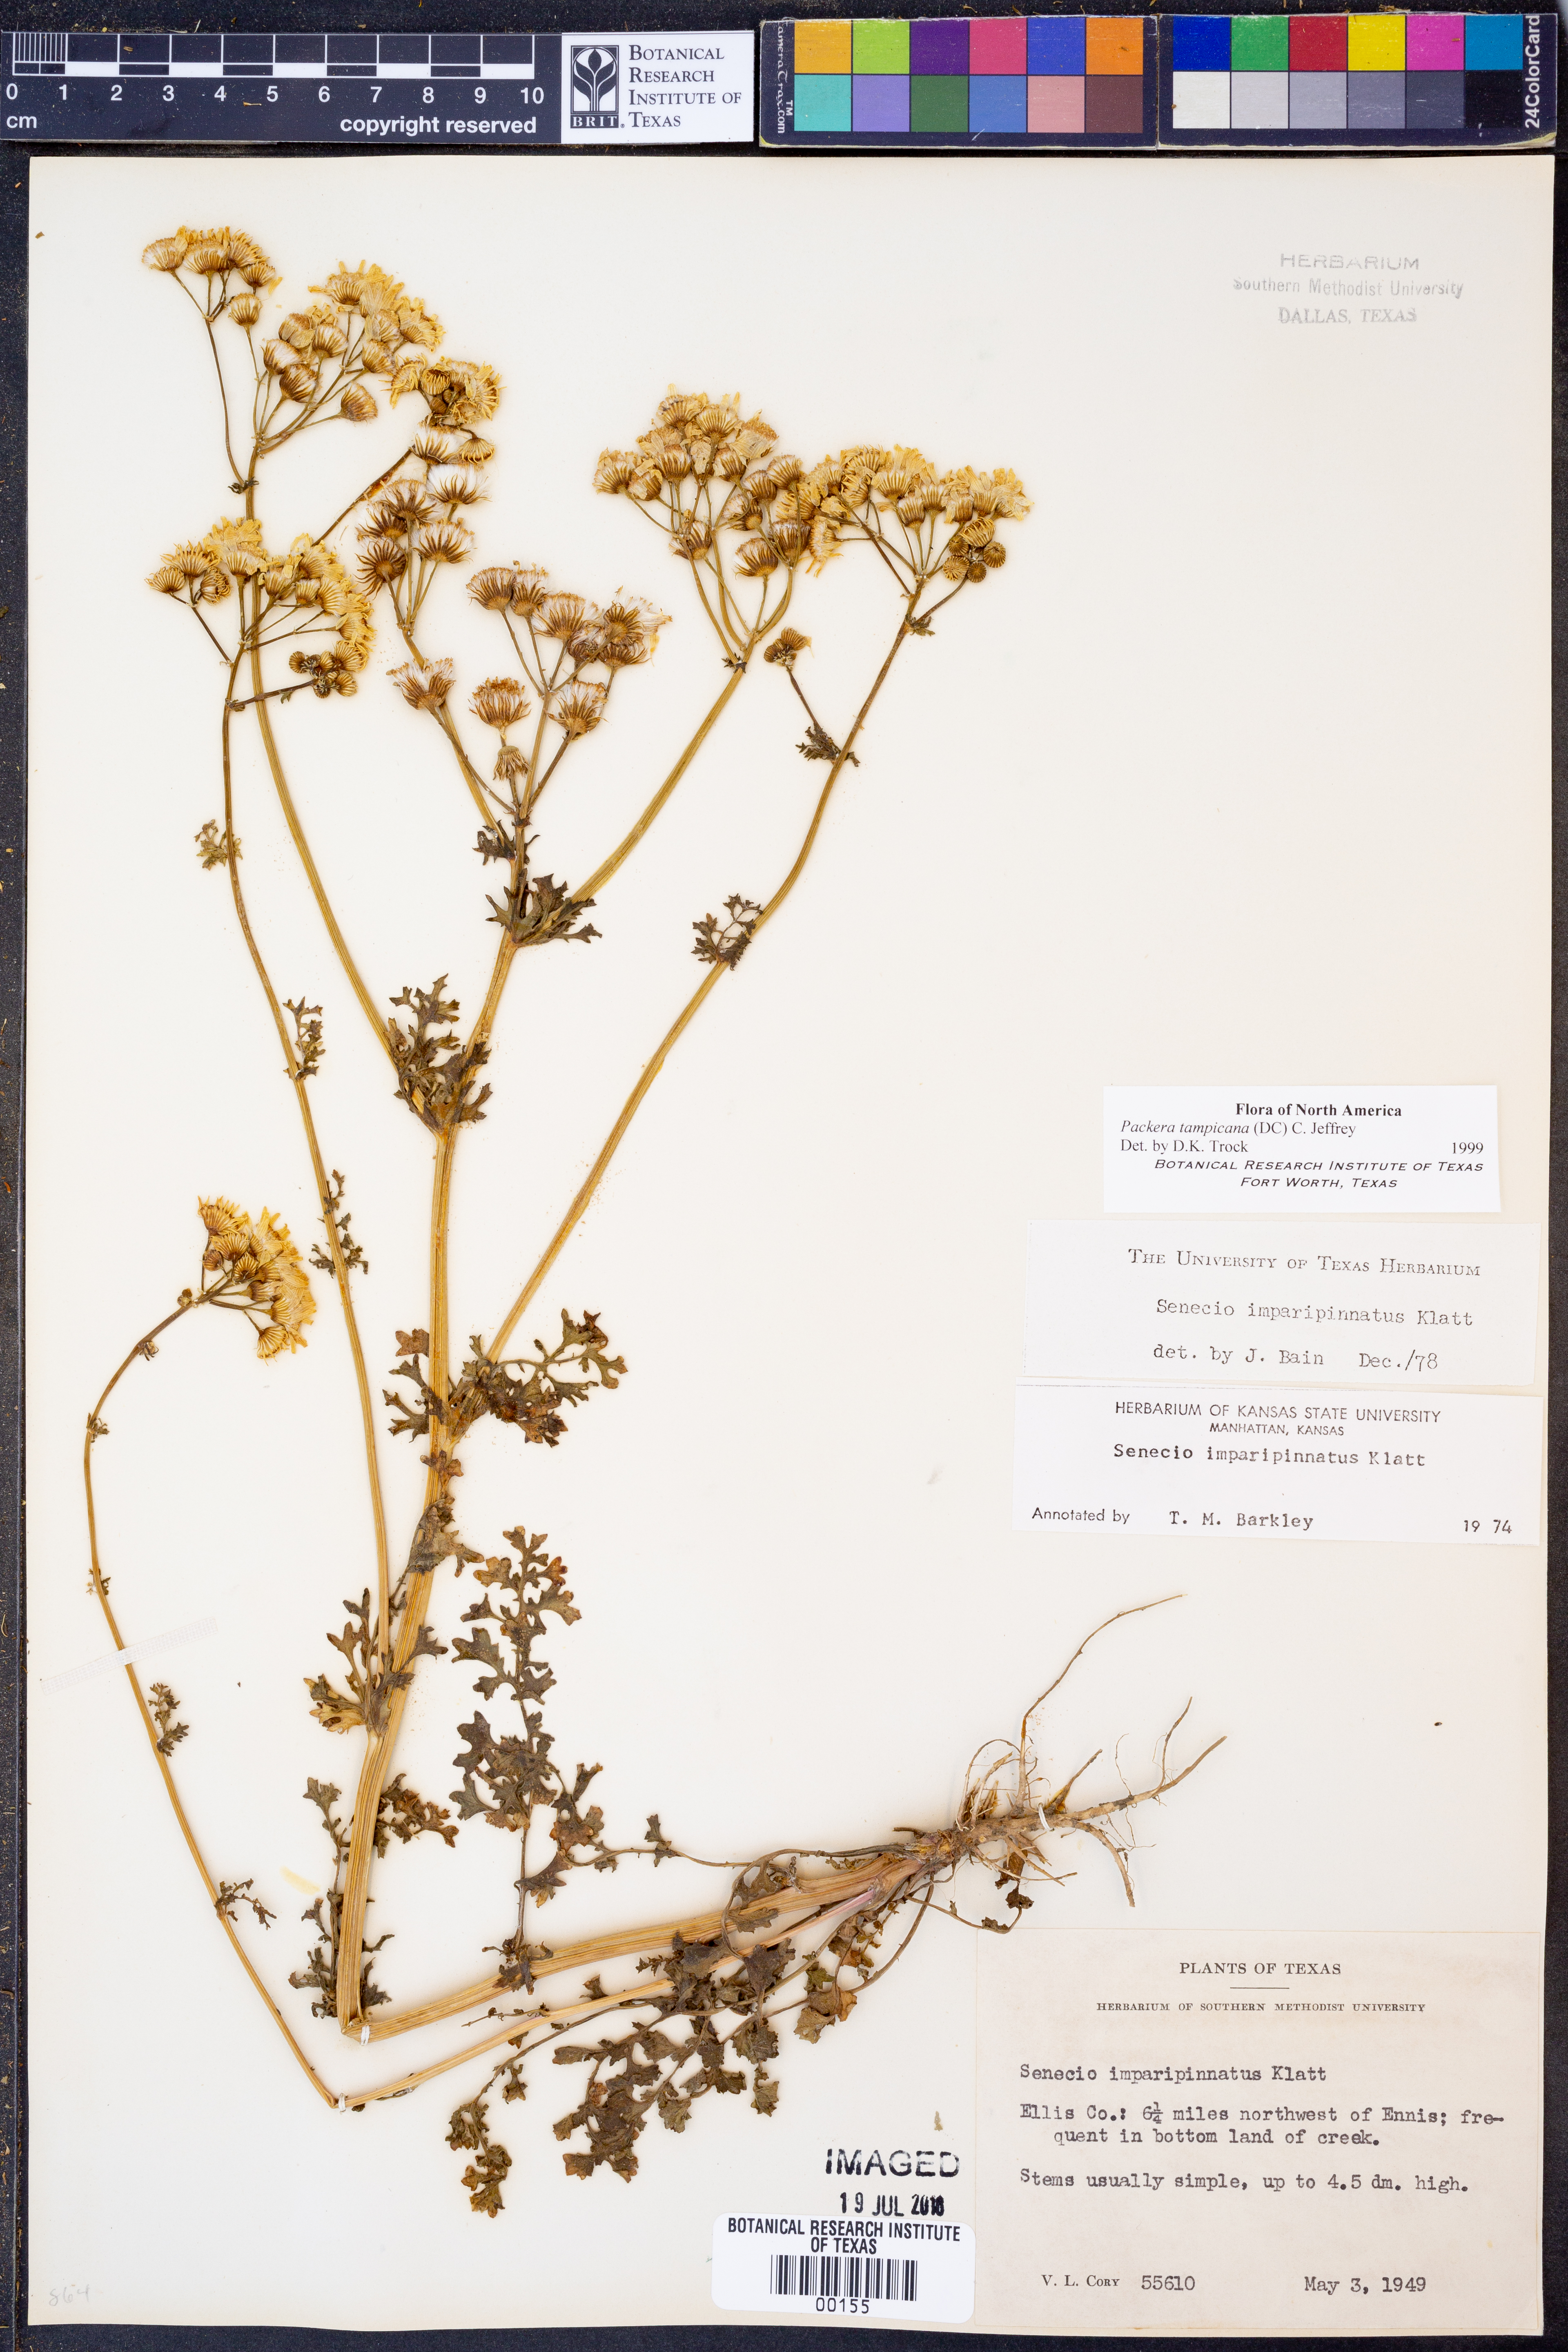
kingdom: Plantae
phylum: Tracheophyta
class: Magnoliopsida
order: Asterales
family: Asteraceae
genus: Packera
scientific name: Packera tampicana
